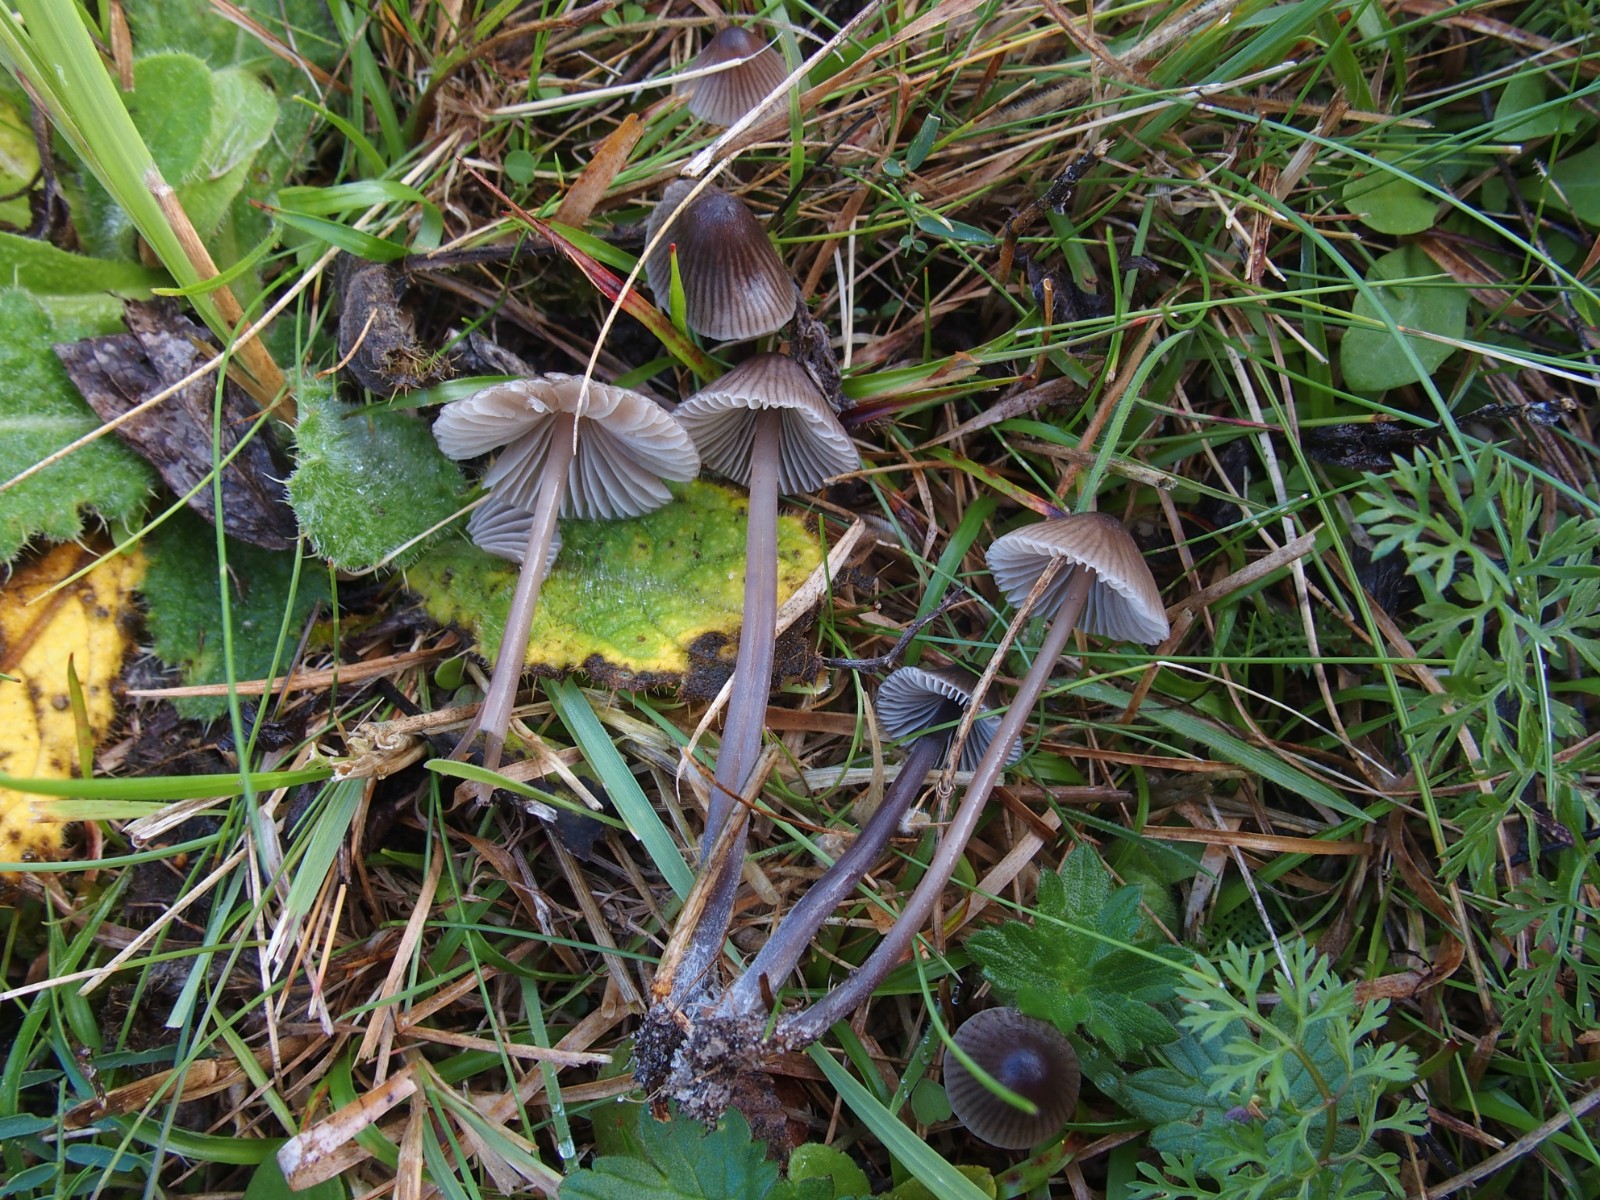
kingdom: Fungi
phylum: Basidiomycota
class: Agaricomycetes
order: Agaricales
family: Mycenaceae
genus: Mycena
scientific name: Mycena leptocephala
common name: klor-huesvamp
